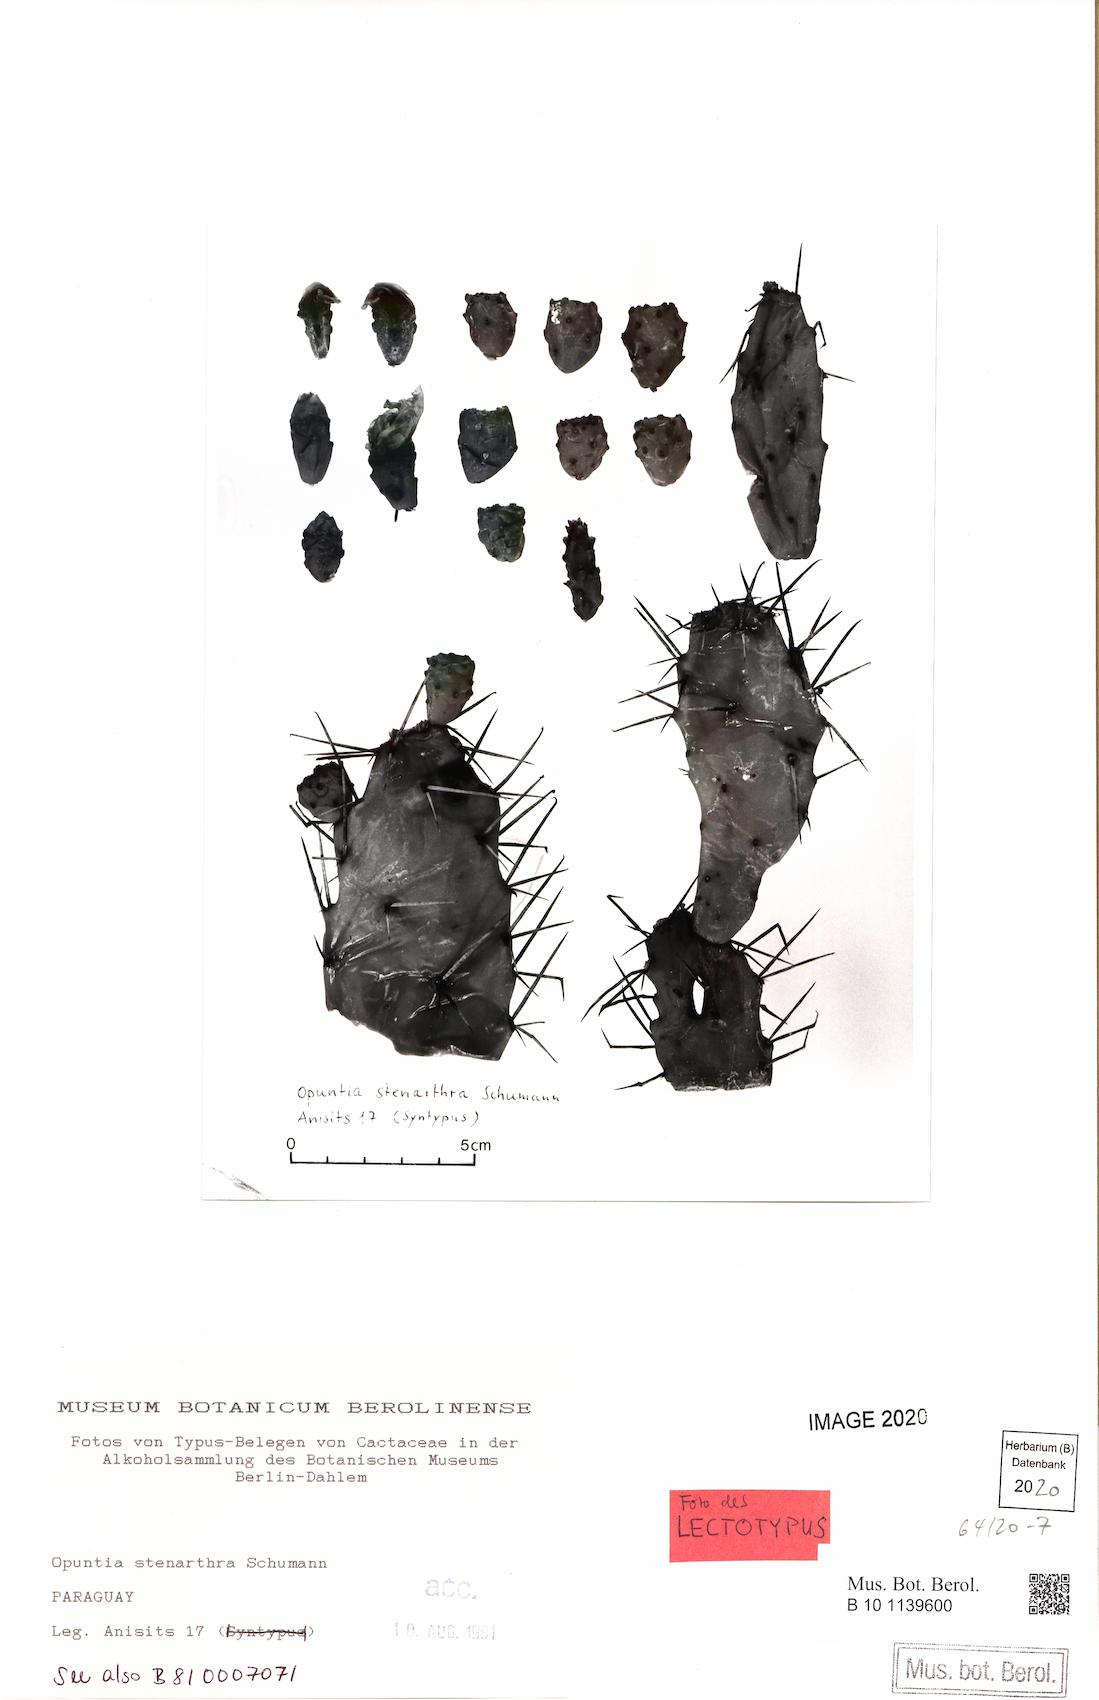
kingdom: Plantae
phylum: Tracheophyta
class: Magnoliopsida
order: Caryophyllales
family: Cactaceae
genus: Opuntia
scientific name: Opuntia stenarthra
